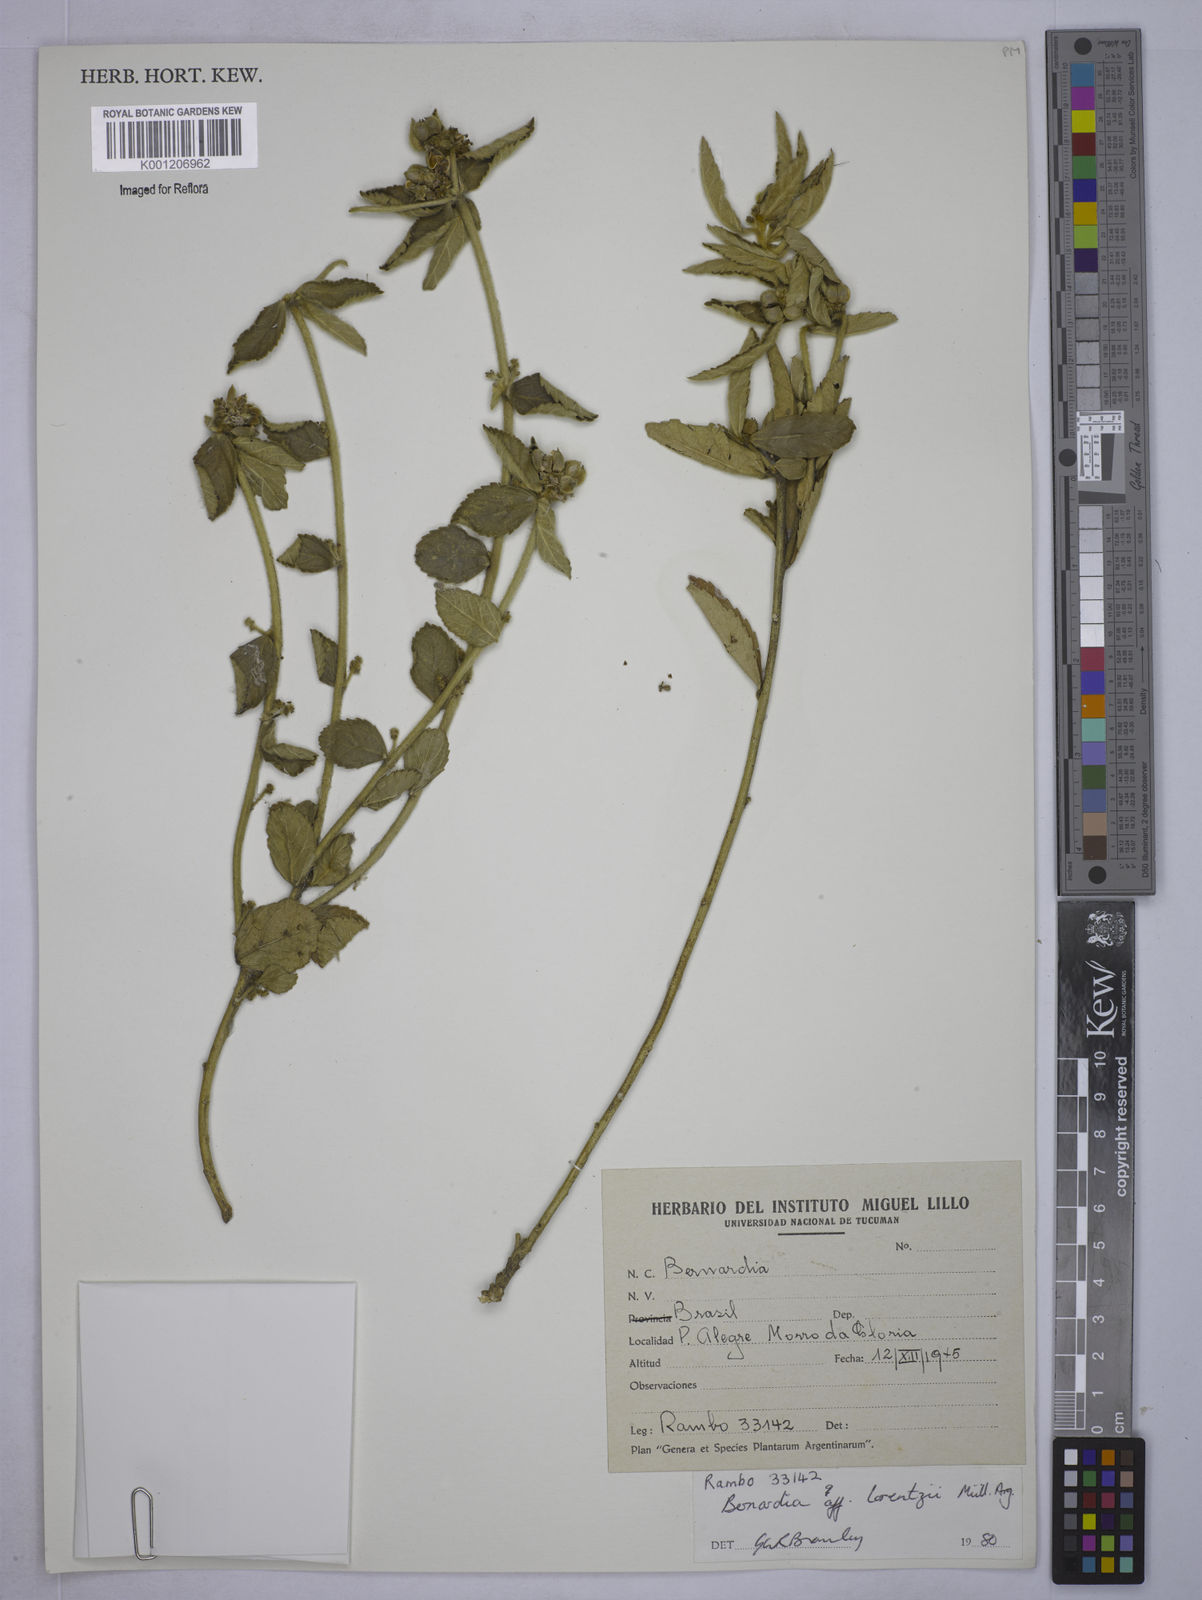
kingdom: Plantae
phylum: Tracheophyta
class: Magnoliopsida
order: Malpighiales
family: Euphorbiaceae
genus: Bernardia
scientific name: Bernardia axillaris
